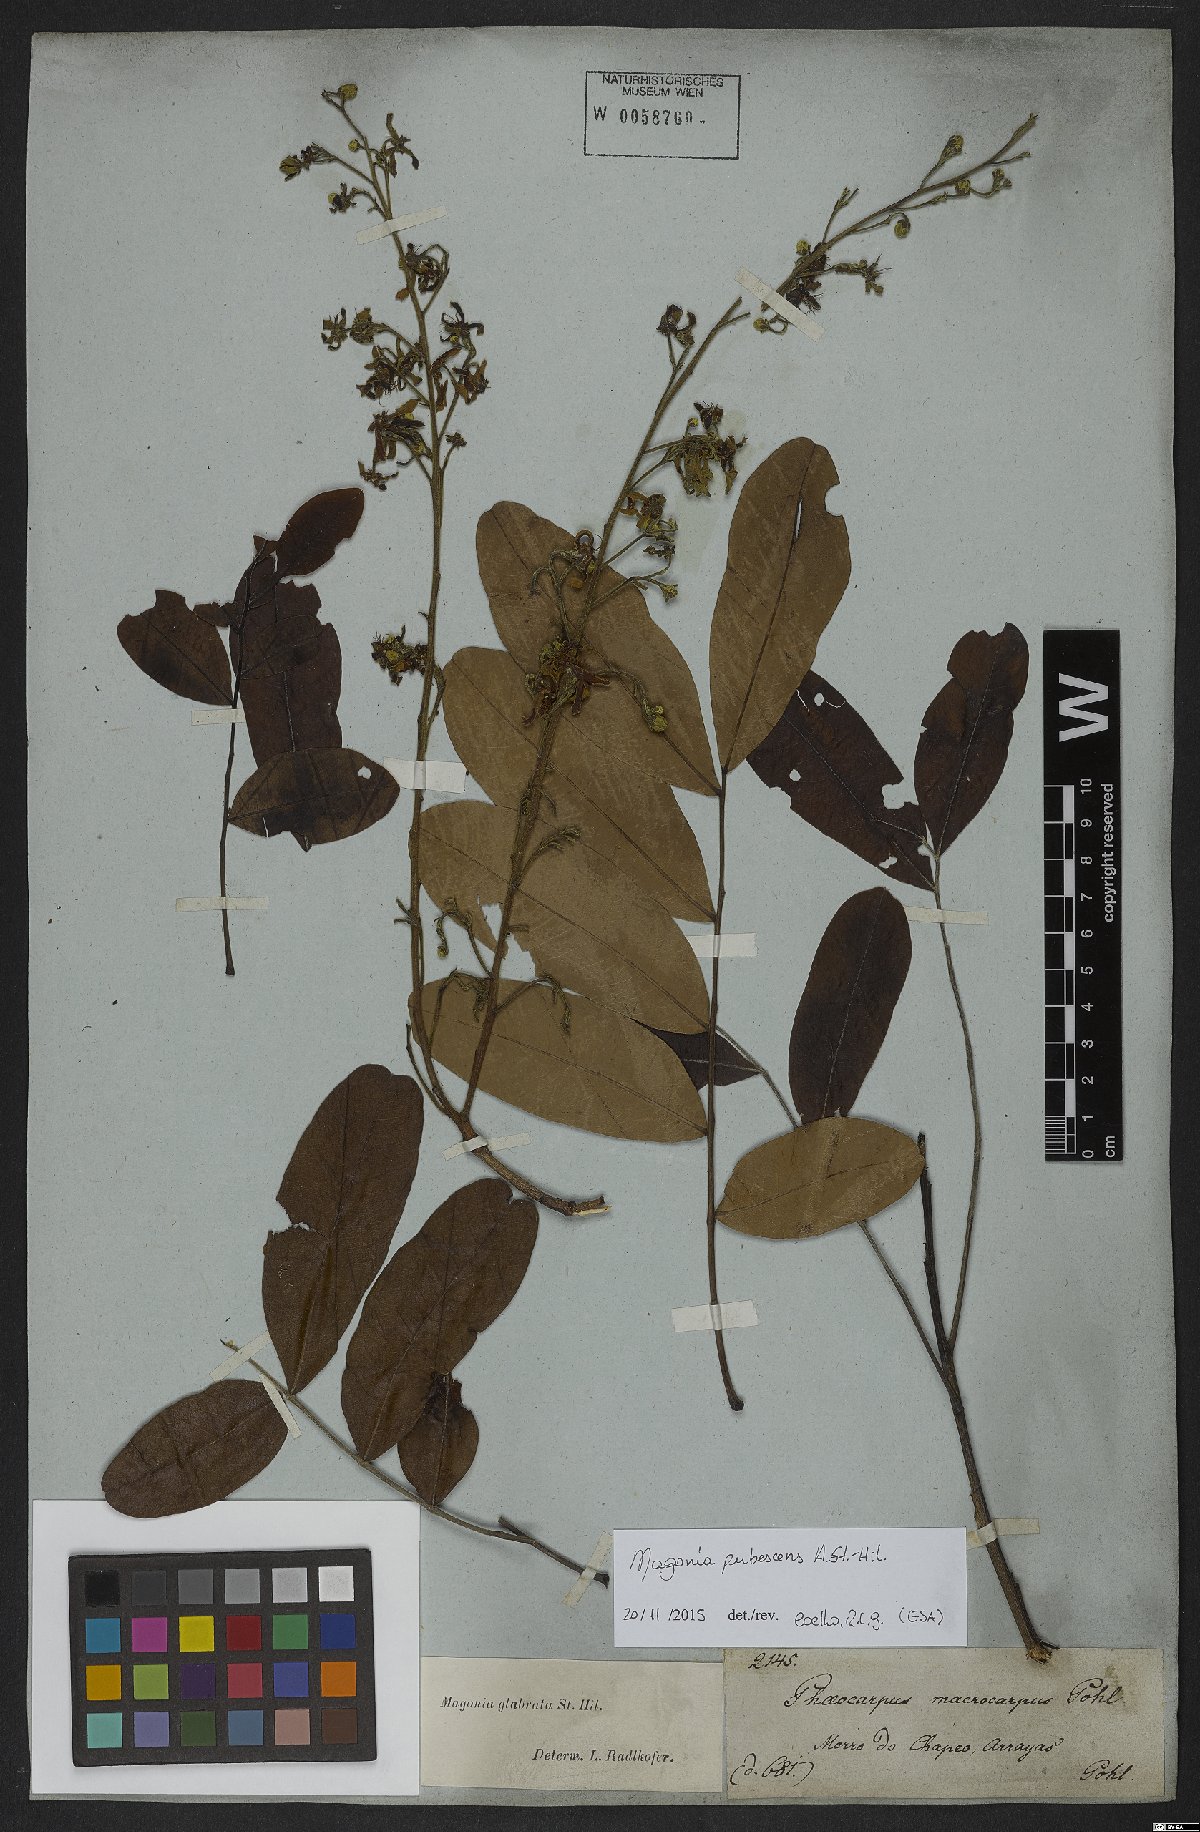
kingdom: Plantae
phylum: Tracheophyta
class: Magnoliopsida
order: Sapindales
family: Sapindaceae
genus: Magonia
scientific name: Magonia pubescens
